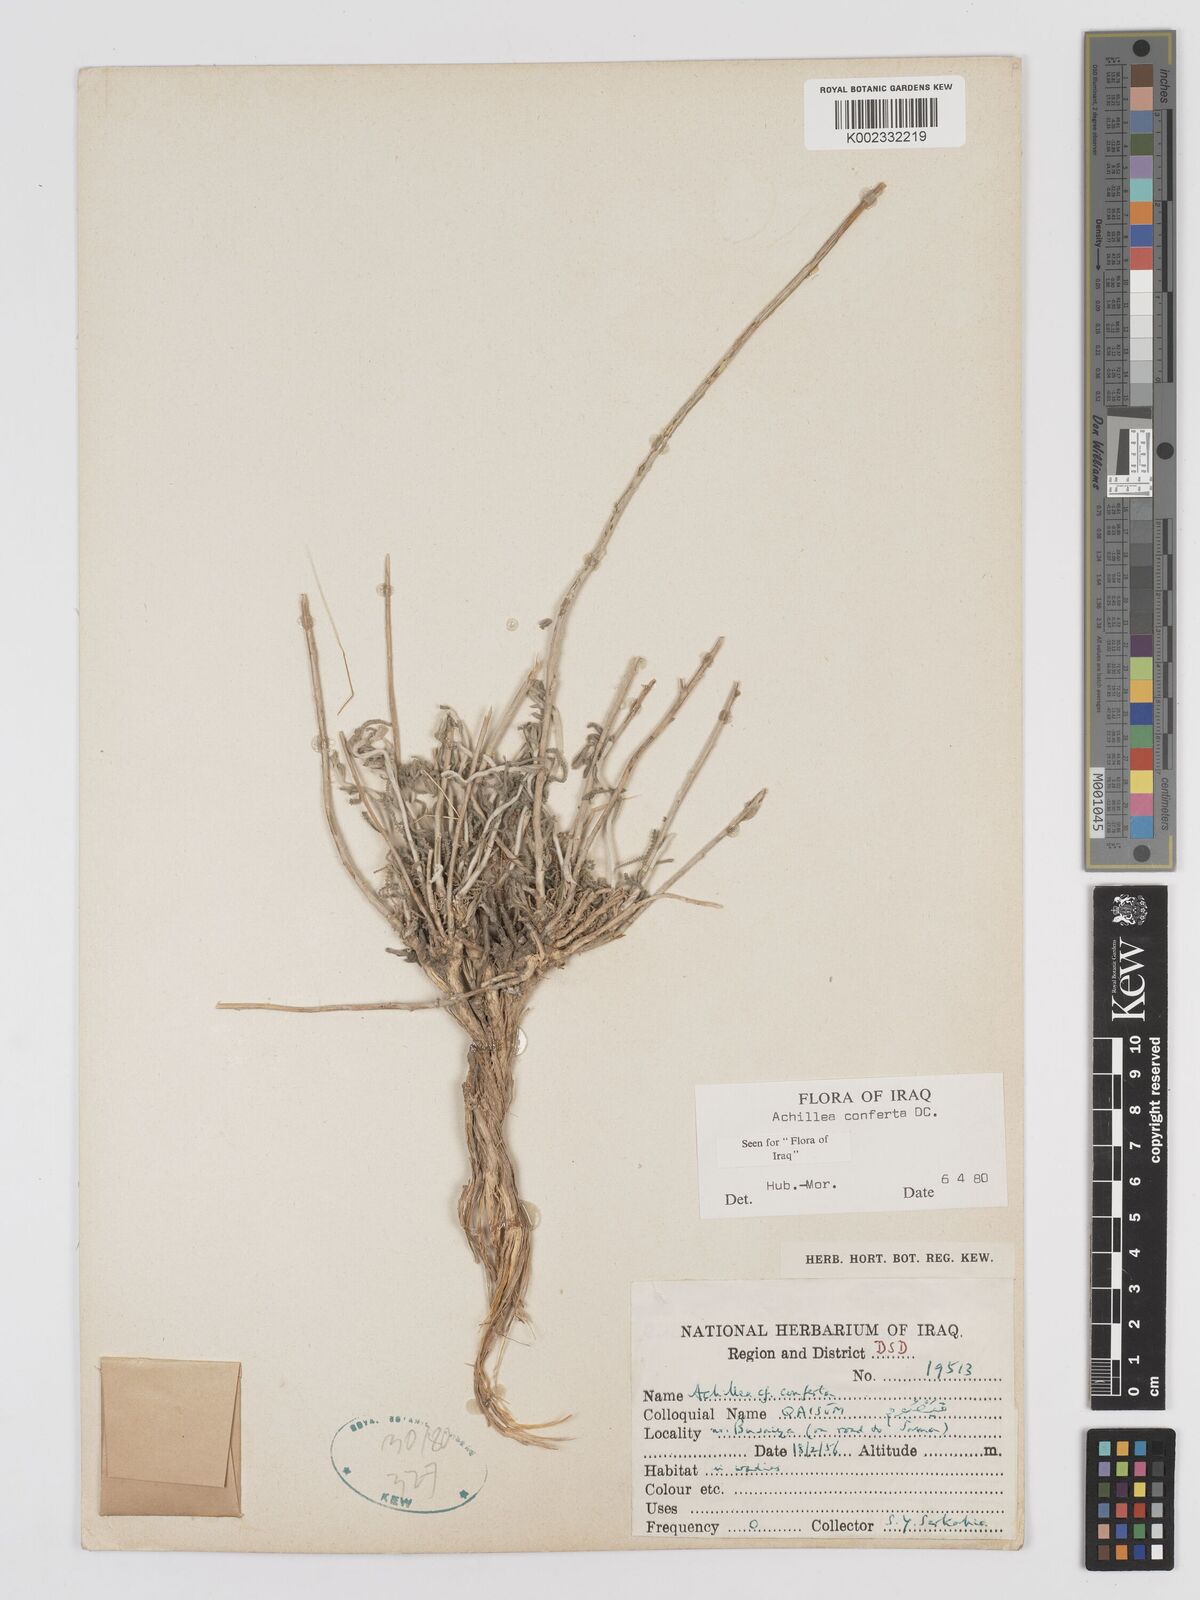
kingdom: Plantae
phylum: Tracheophyta
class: Magnoliopsida
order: Asterales
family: Asteraceae
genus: Achillea
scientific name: Achillea conferta
